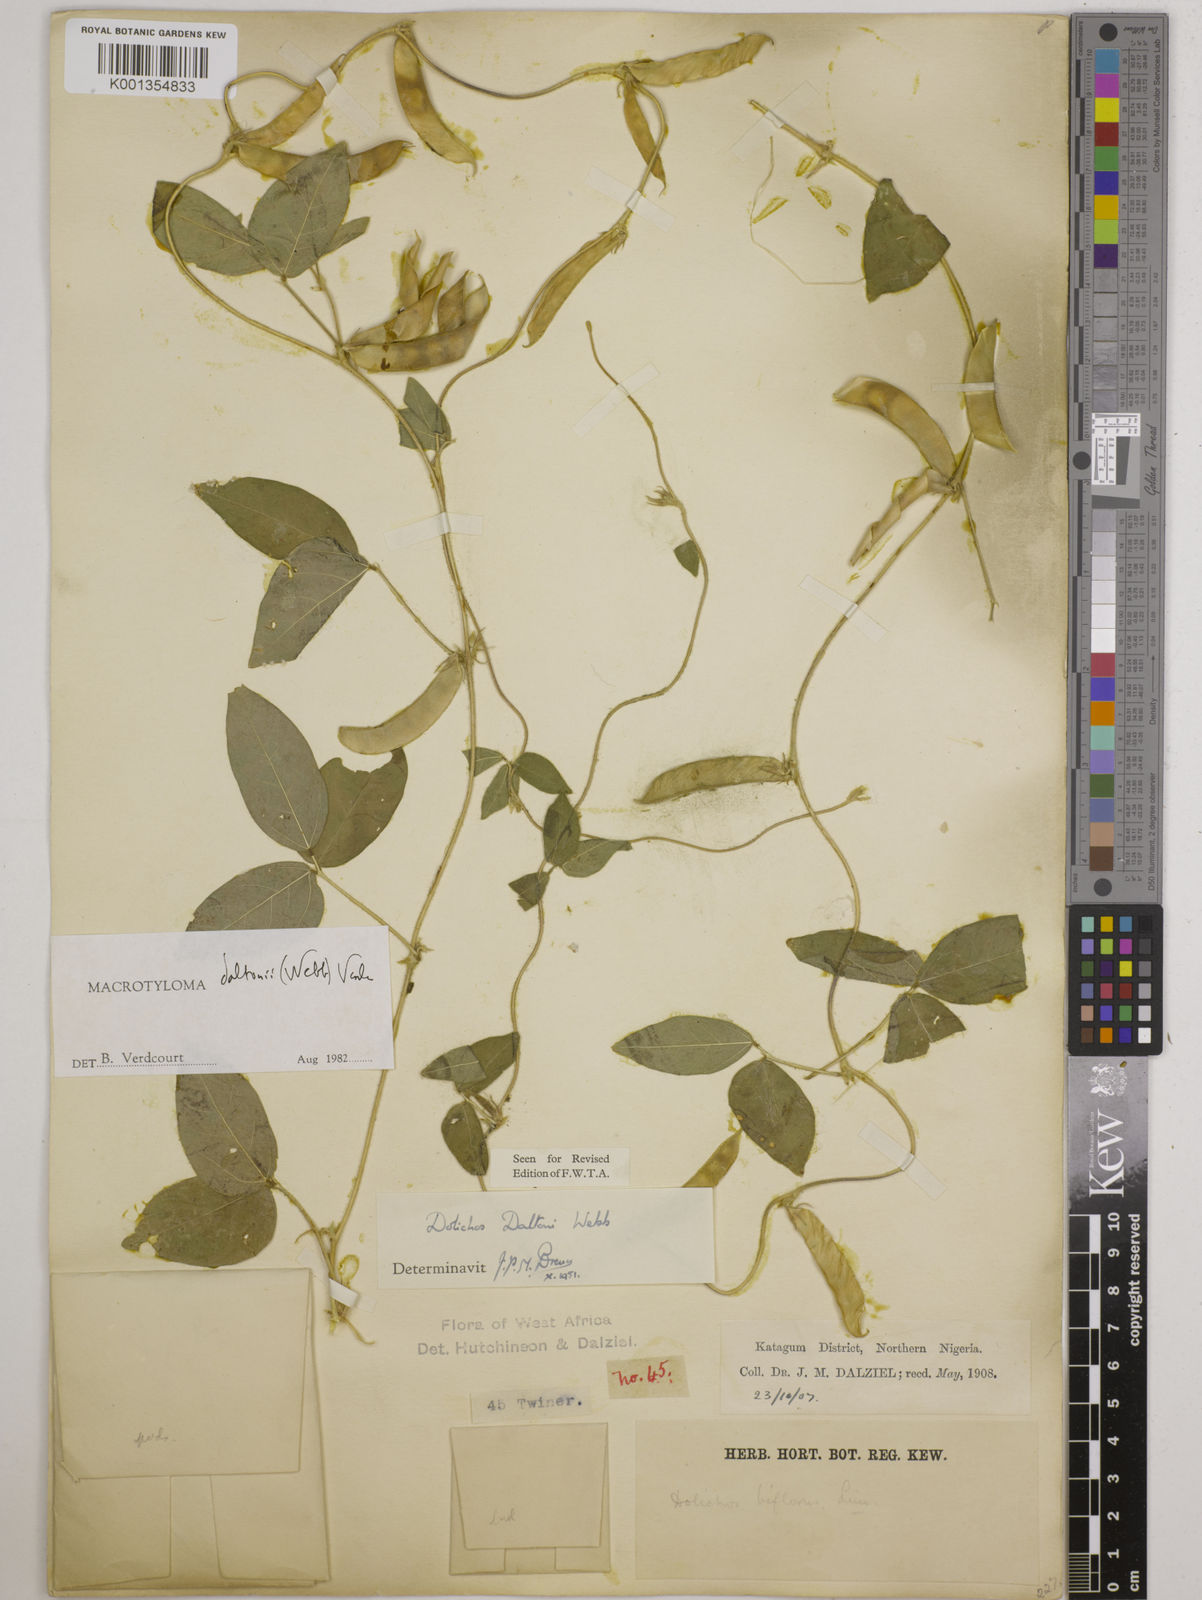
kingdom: Plantae
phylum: Tracheophyta
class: Magnoliopsida
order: Fabales
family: Fabaceae
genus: Macrotyloma
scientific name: Macrotyloma daltonii
